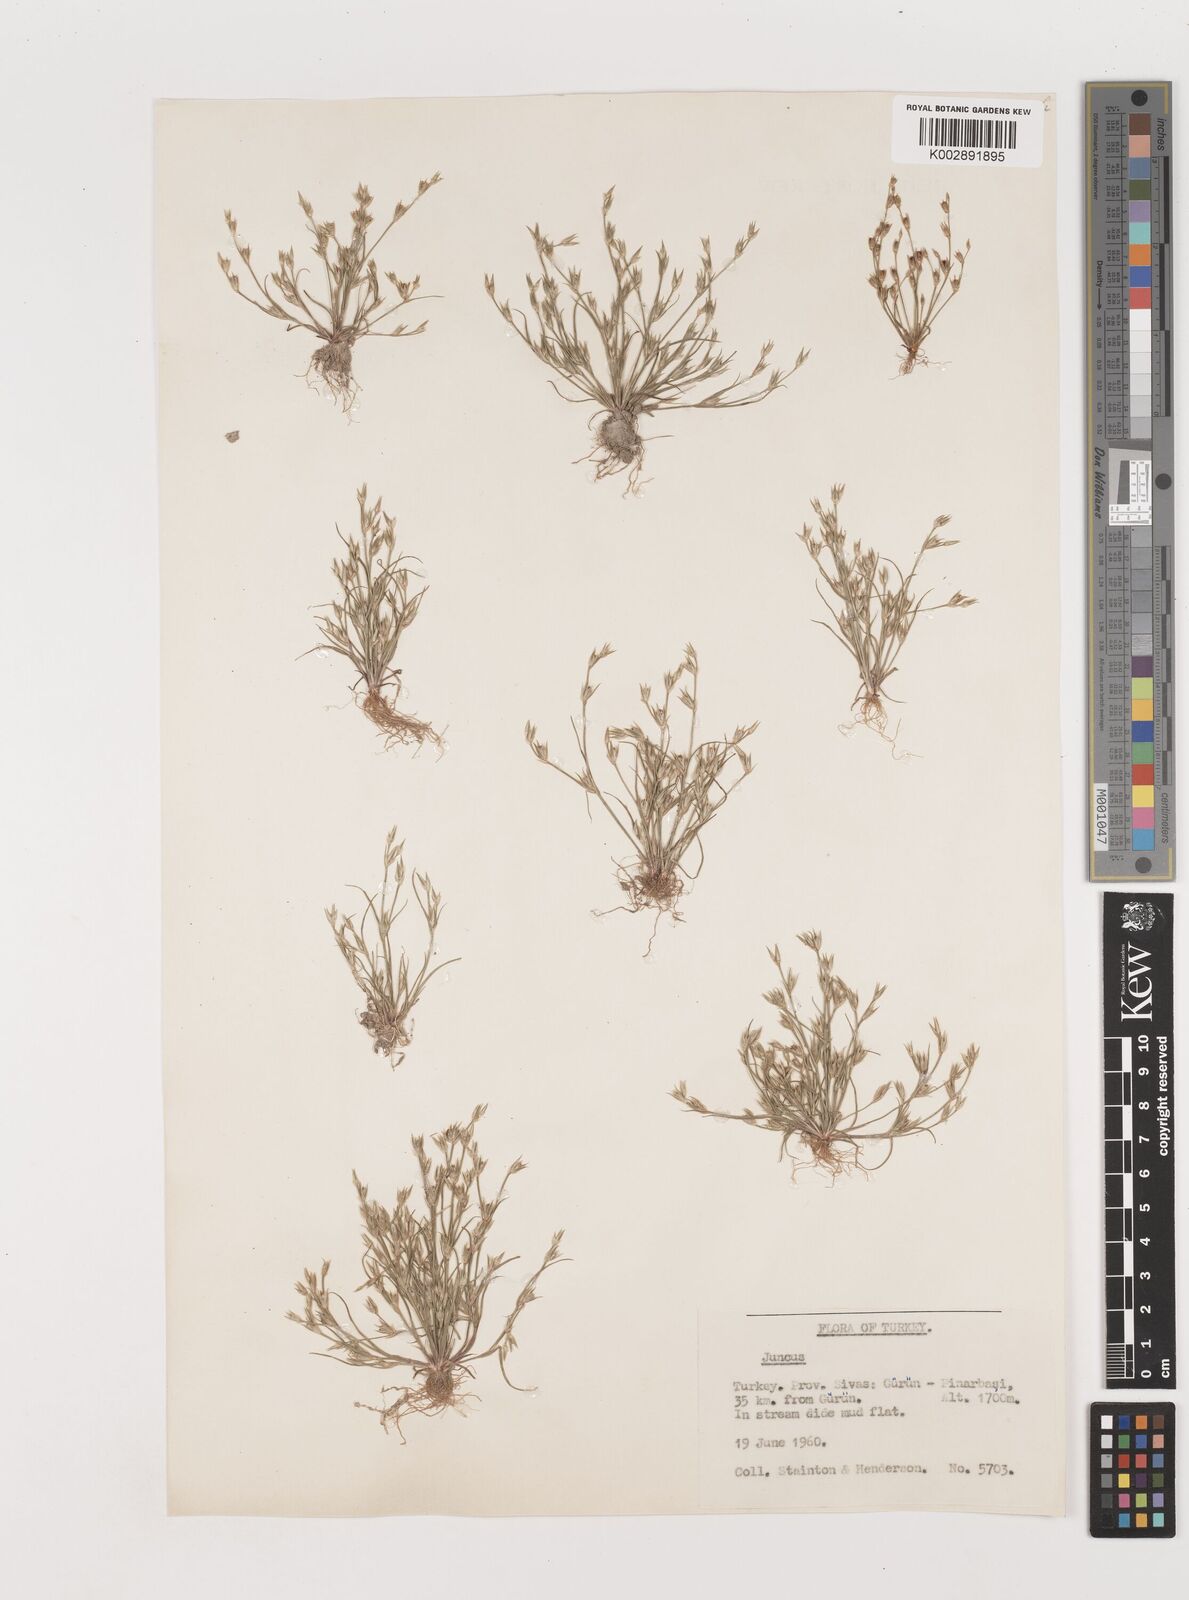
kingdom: Plantae
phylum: Tracheophyta
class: Liliopsida
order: Poales
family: Juncaceae
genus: Juncus
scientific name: Juncus
